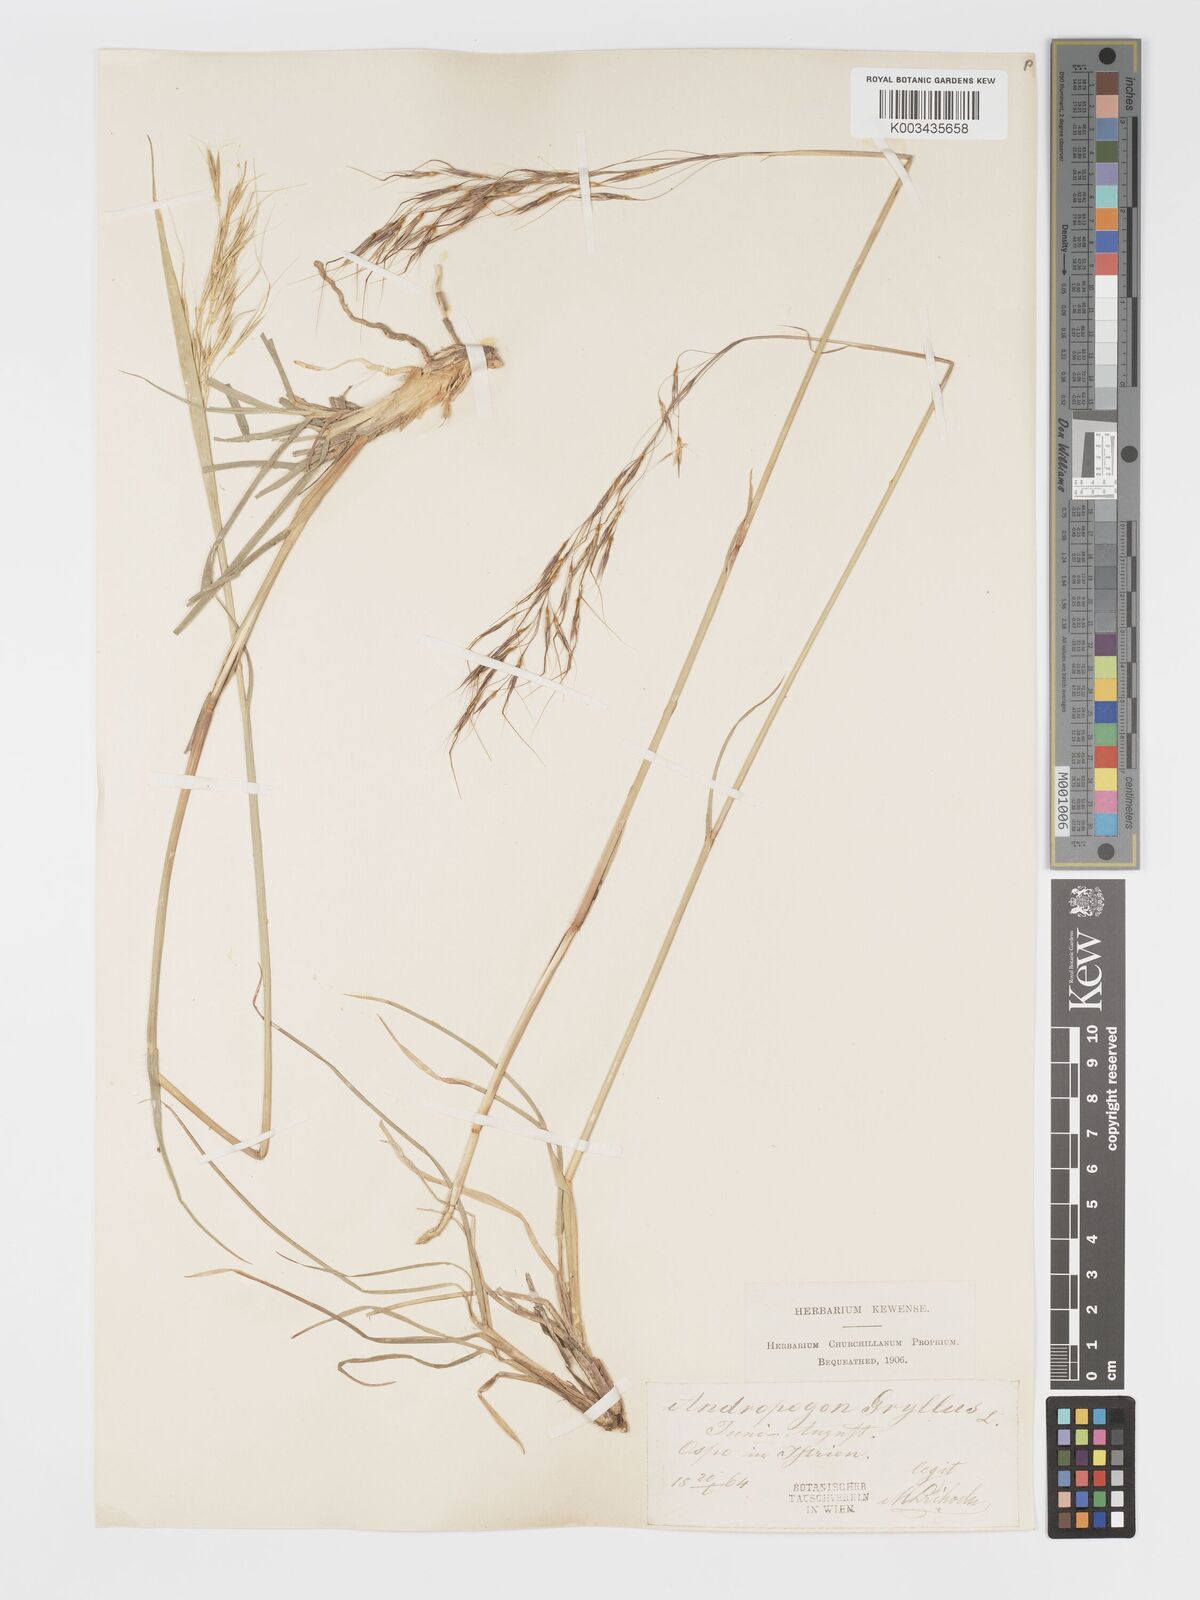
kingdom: Plantae
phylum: Tracheophyta
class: Liliopsida
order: Poales
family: Poaceae
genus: Chrysopogon
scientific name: Chrysopogon gryllus
